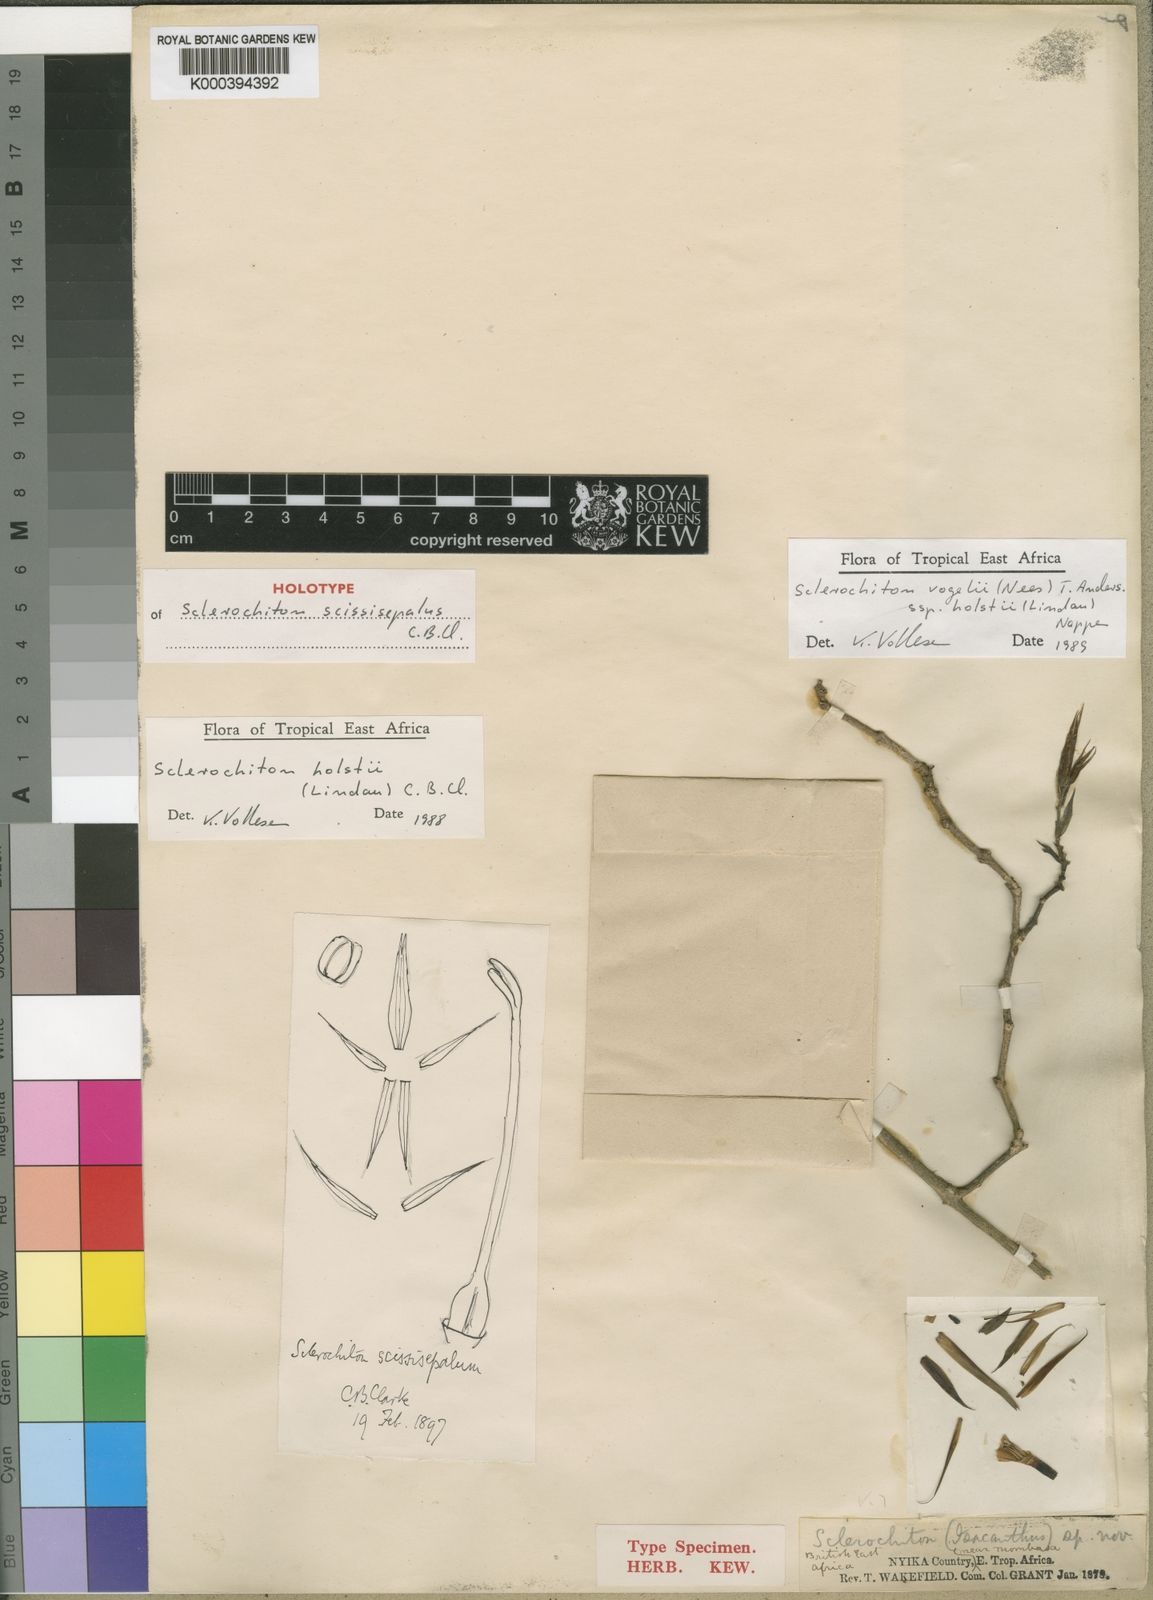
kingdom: Plantae
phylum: Tracheophyta
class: Magnoliopsida
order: Lamiales
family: Acanthaceae
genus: Sclerochiton
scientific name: Sclerochiton vogelii
